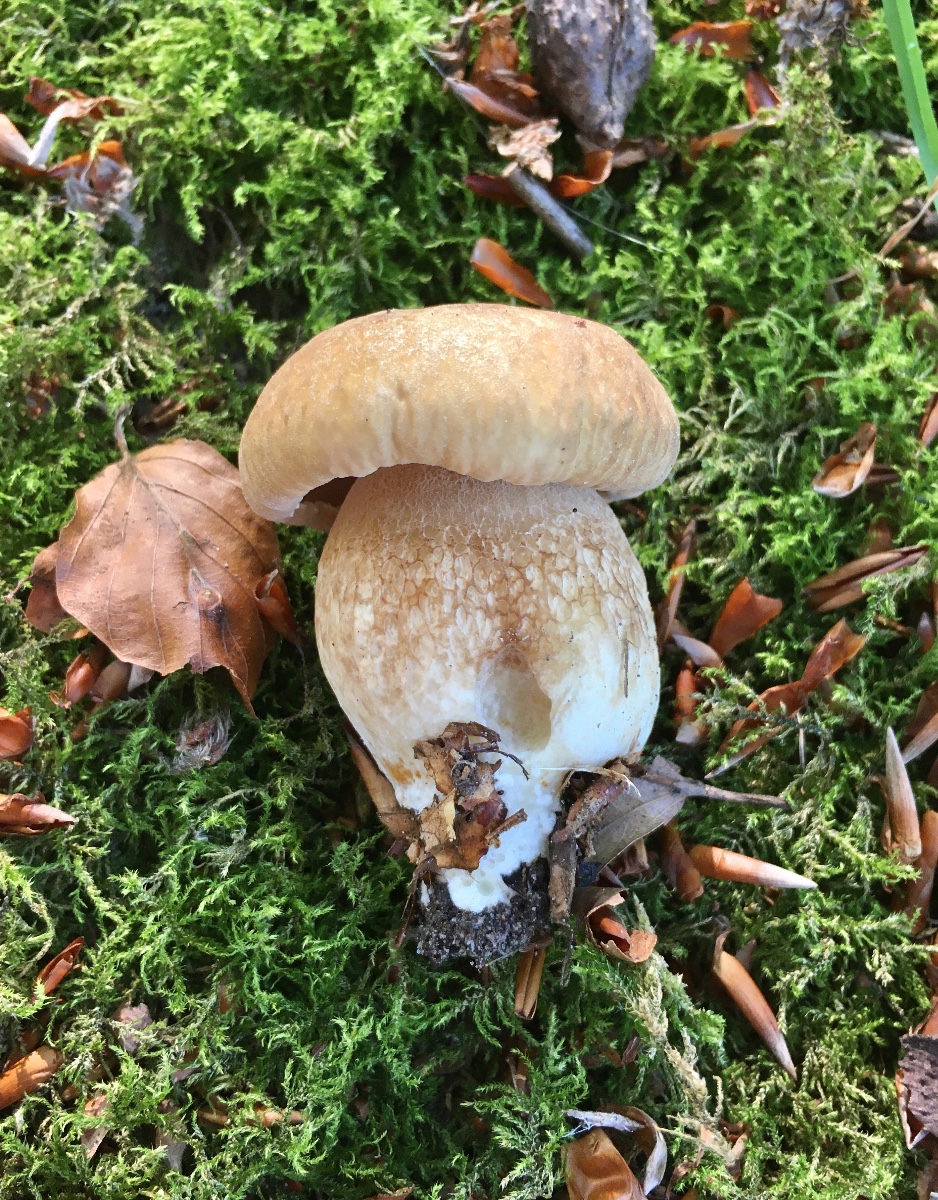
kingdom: Fungi
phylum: Basidiomycota
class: Agaricomycetes
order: Boletales
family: Boletaceae
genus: Boletus
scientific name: Boletus reticulatus
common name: sommer-rørhat
